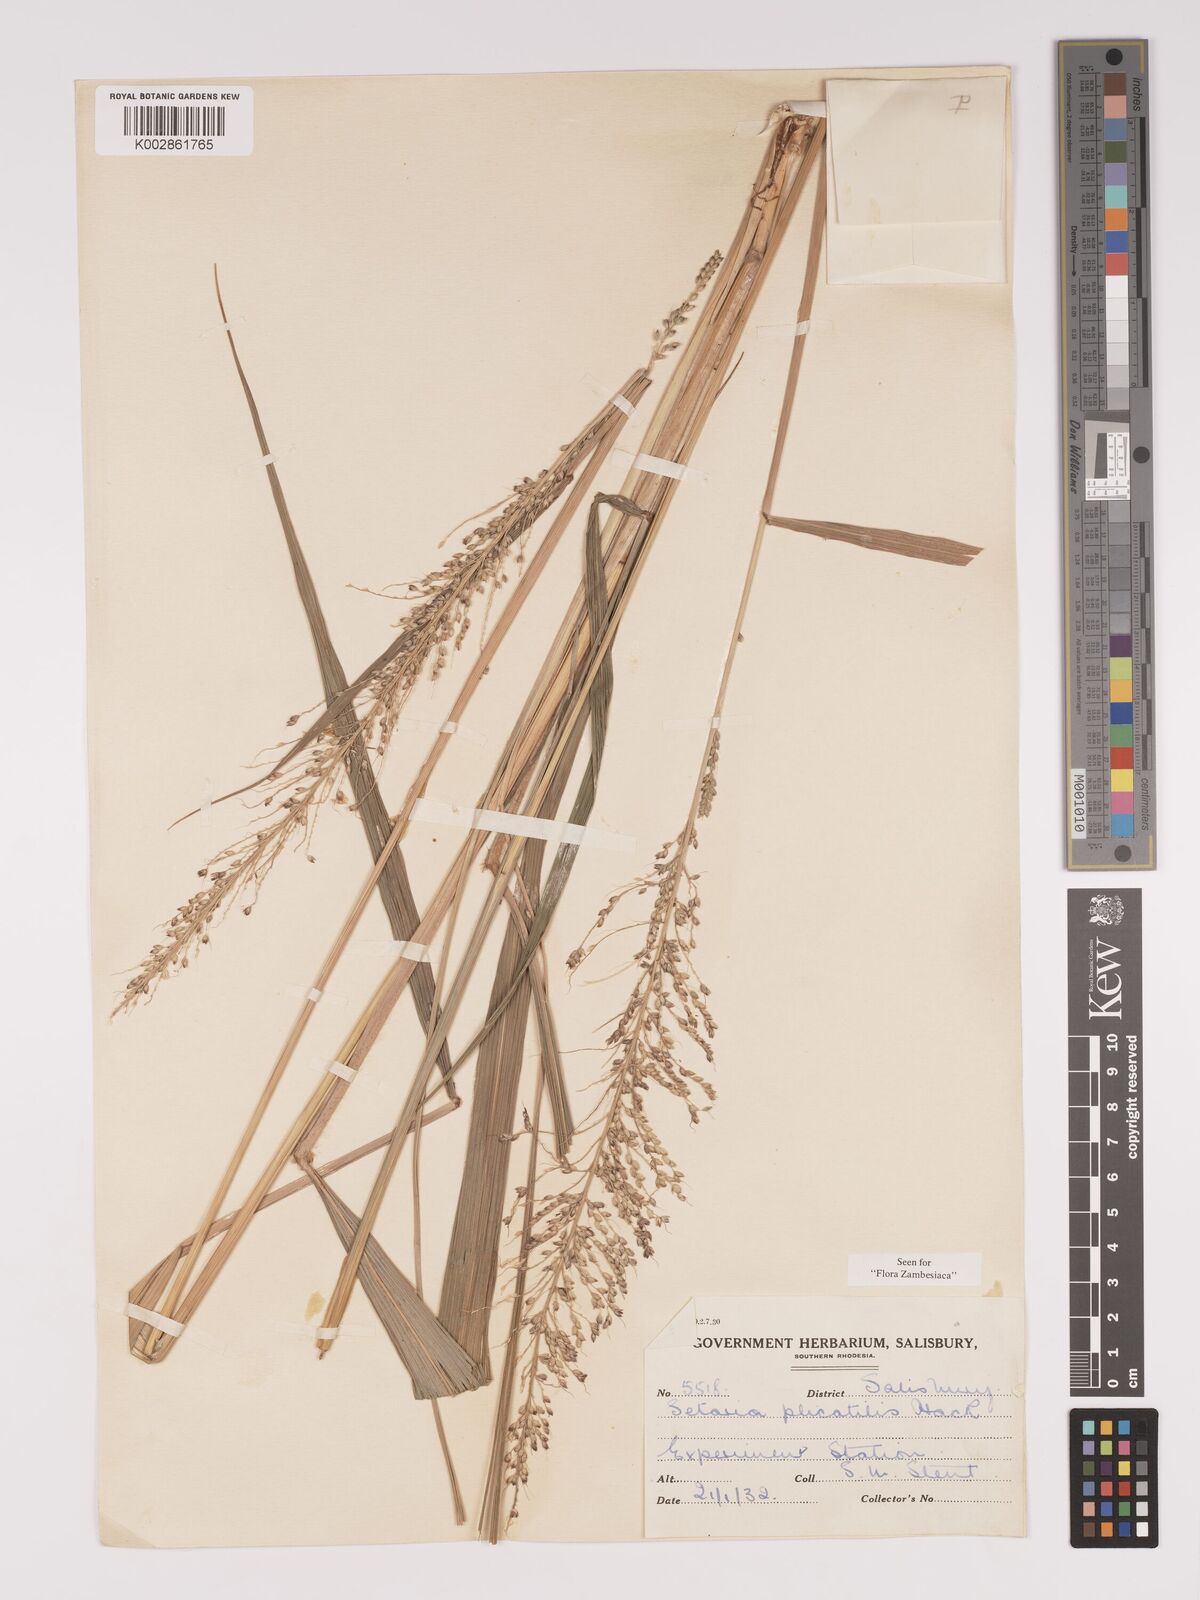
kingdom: Plantae
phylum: Tracheophyta
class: Liliopsida
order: Poales
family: Poaceae
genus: Setaria
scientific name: Setaria megaphylla
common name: Bigleaf bristlegrass
